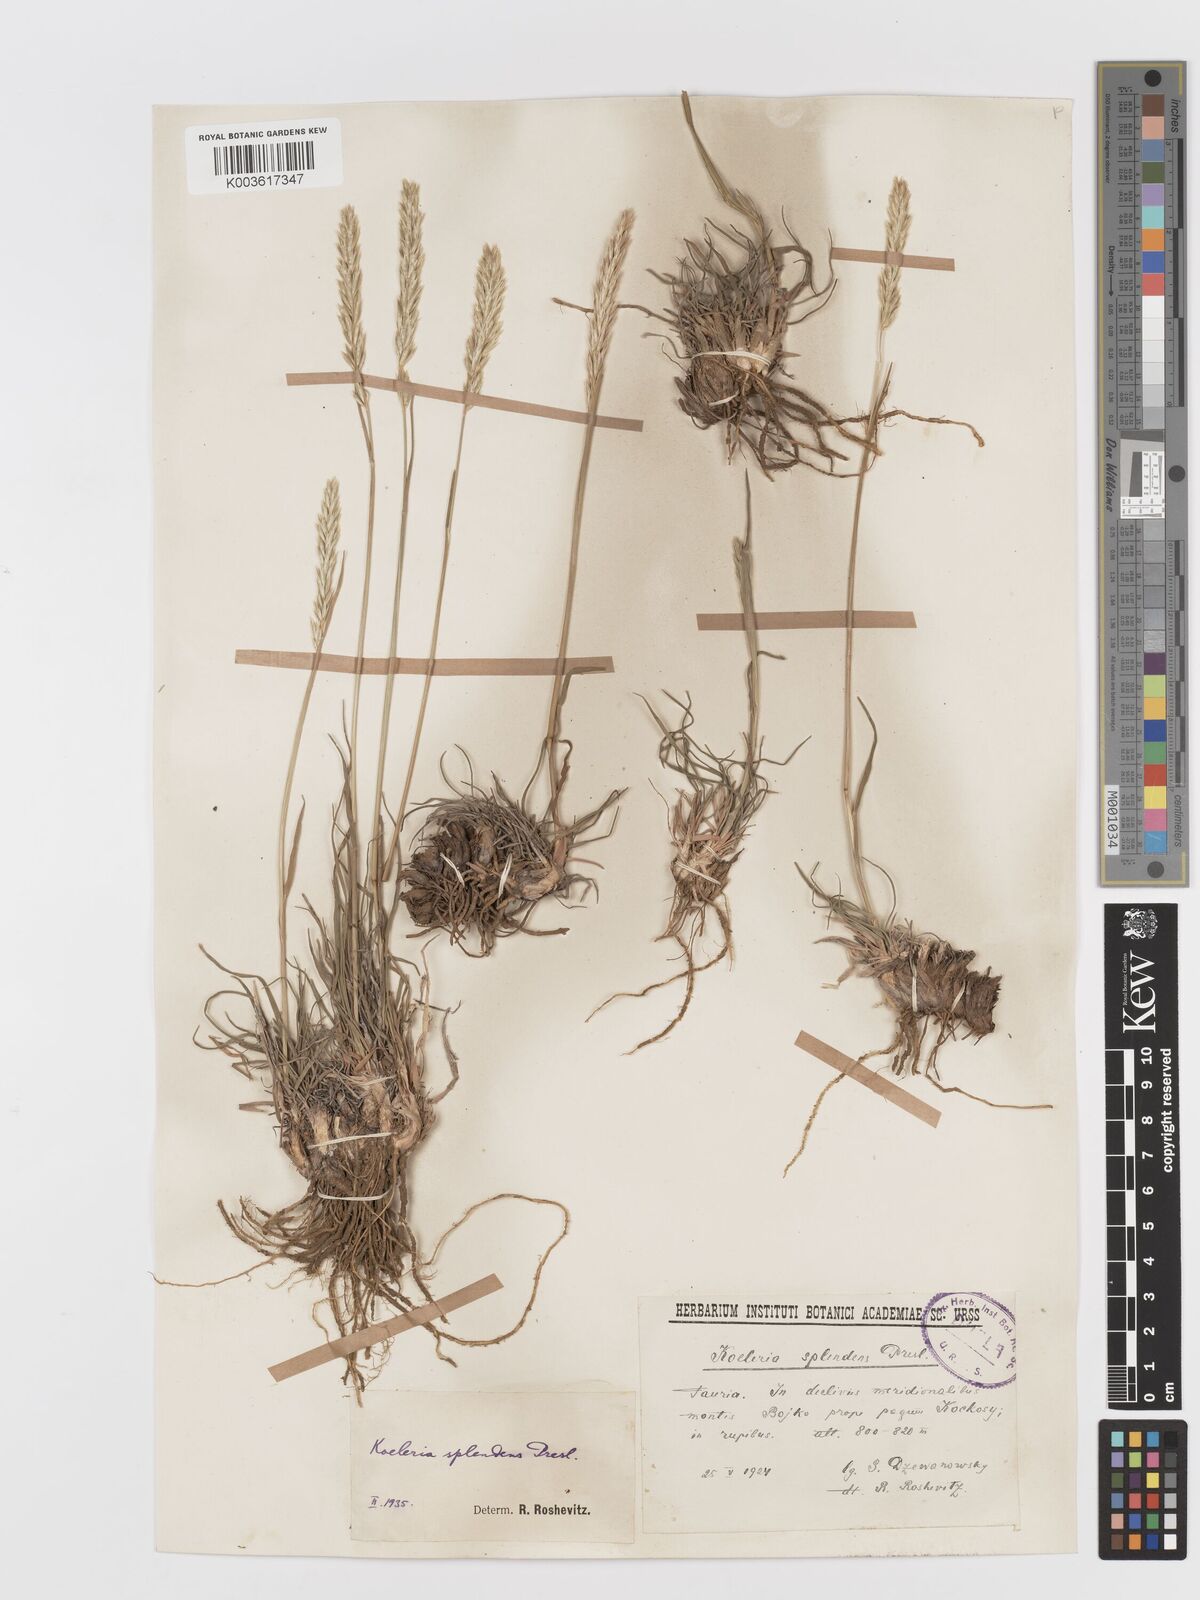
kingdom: Plantae
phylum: Tracheophyta
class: Liliopsida
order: Poales
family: Poaceae
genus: Koeleria
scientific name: Koeleria splendens
